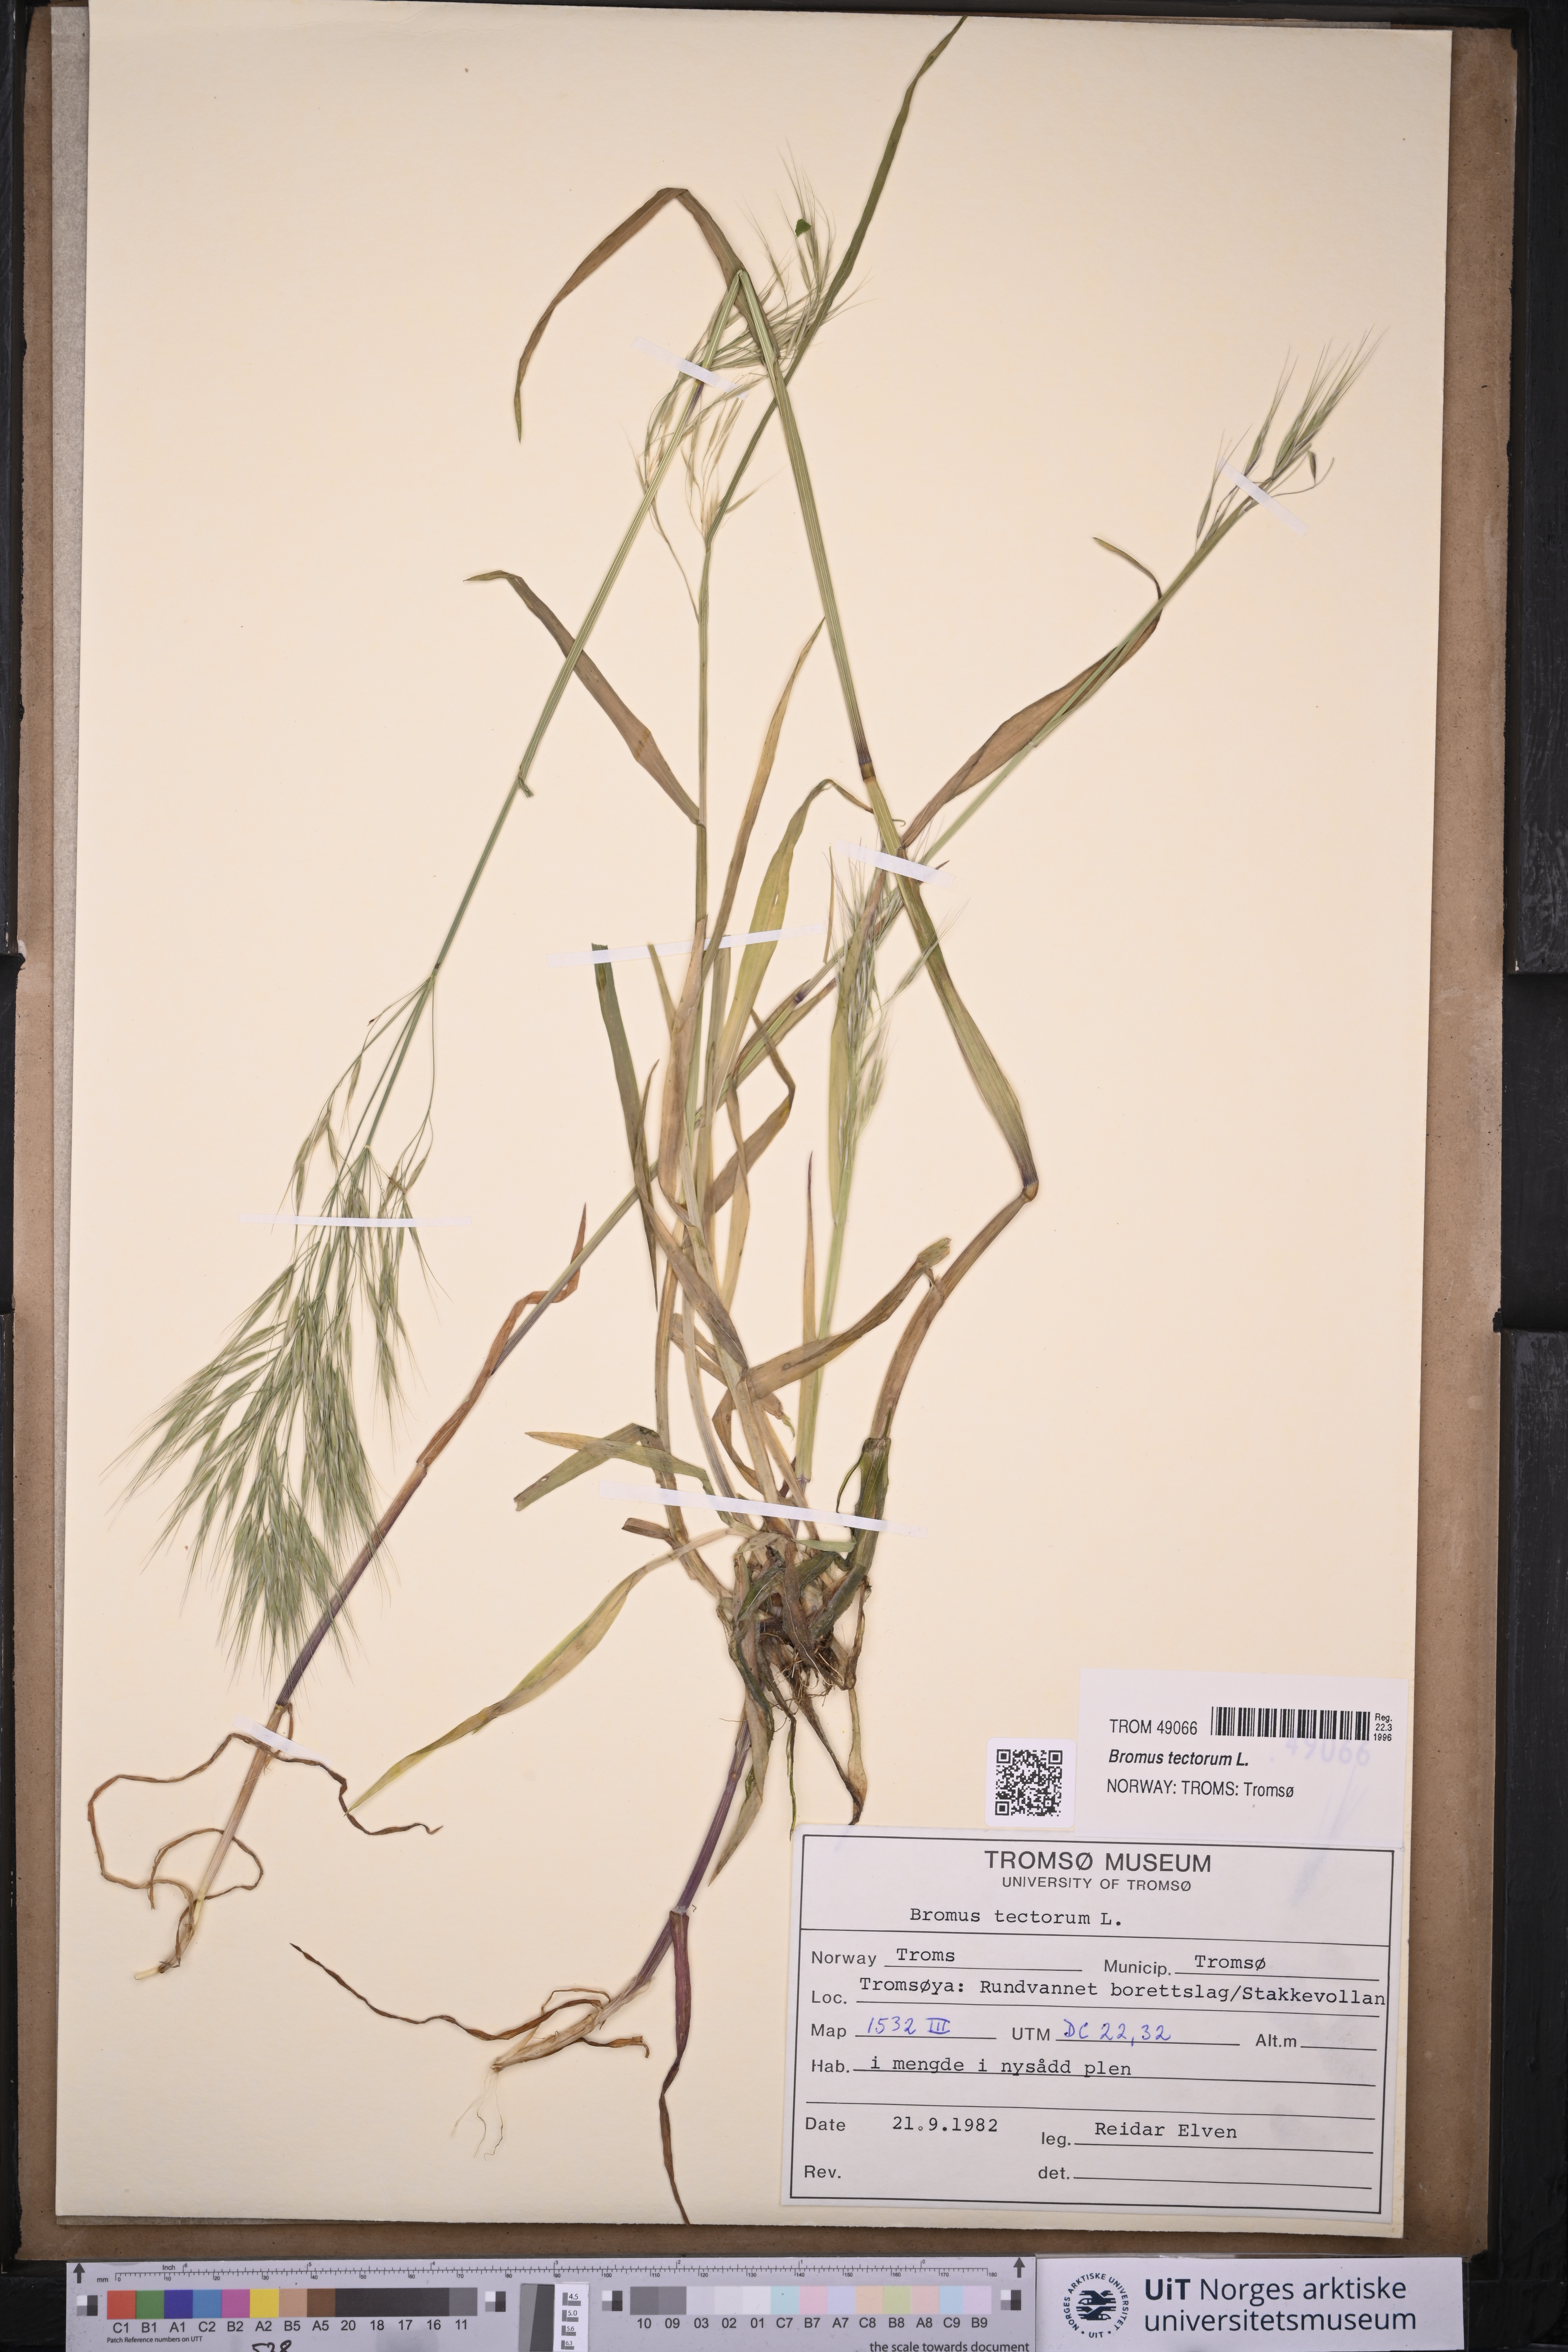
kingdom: Plantae
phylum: Tracheophyta
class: Liliopsida
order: Poales
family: Poaceae
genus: Bromus
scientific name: Bromus tectorum
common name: Cheatgrass
